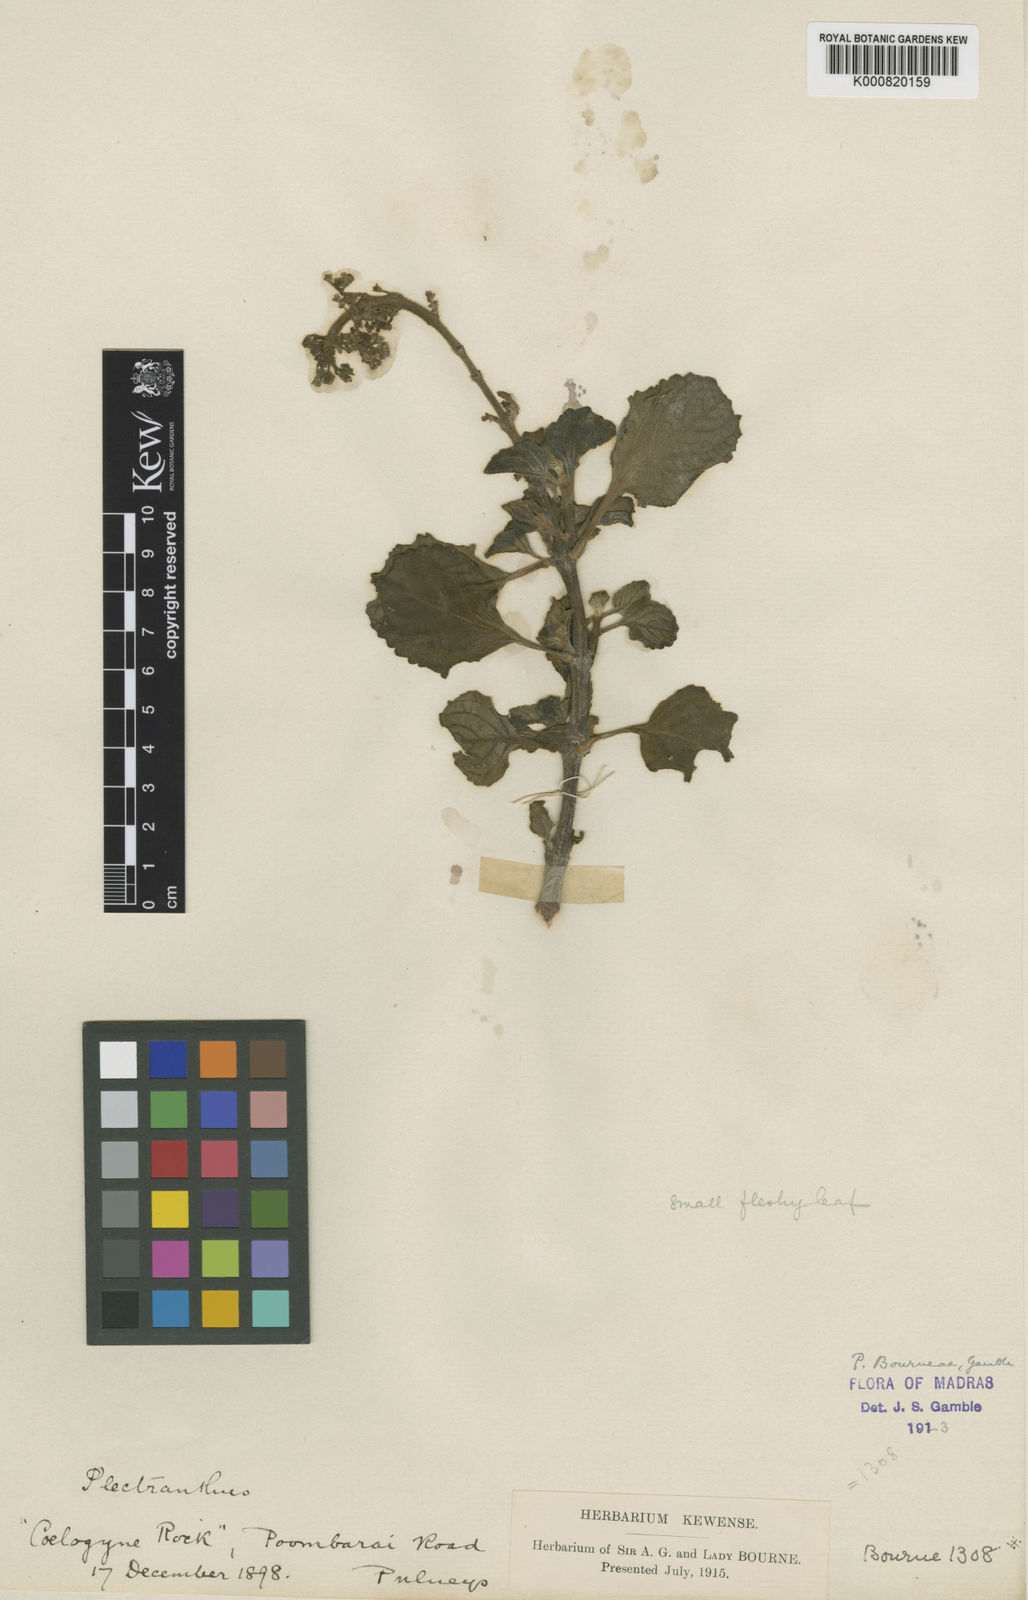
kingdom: Plantae
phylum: Tracheophyta
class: Magnoliopsida
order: Lamiales
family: Lamiaceae
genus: Coleus
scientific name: Coleus bourneae
